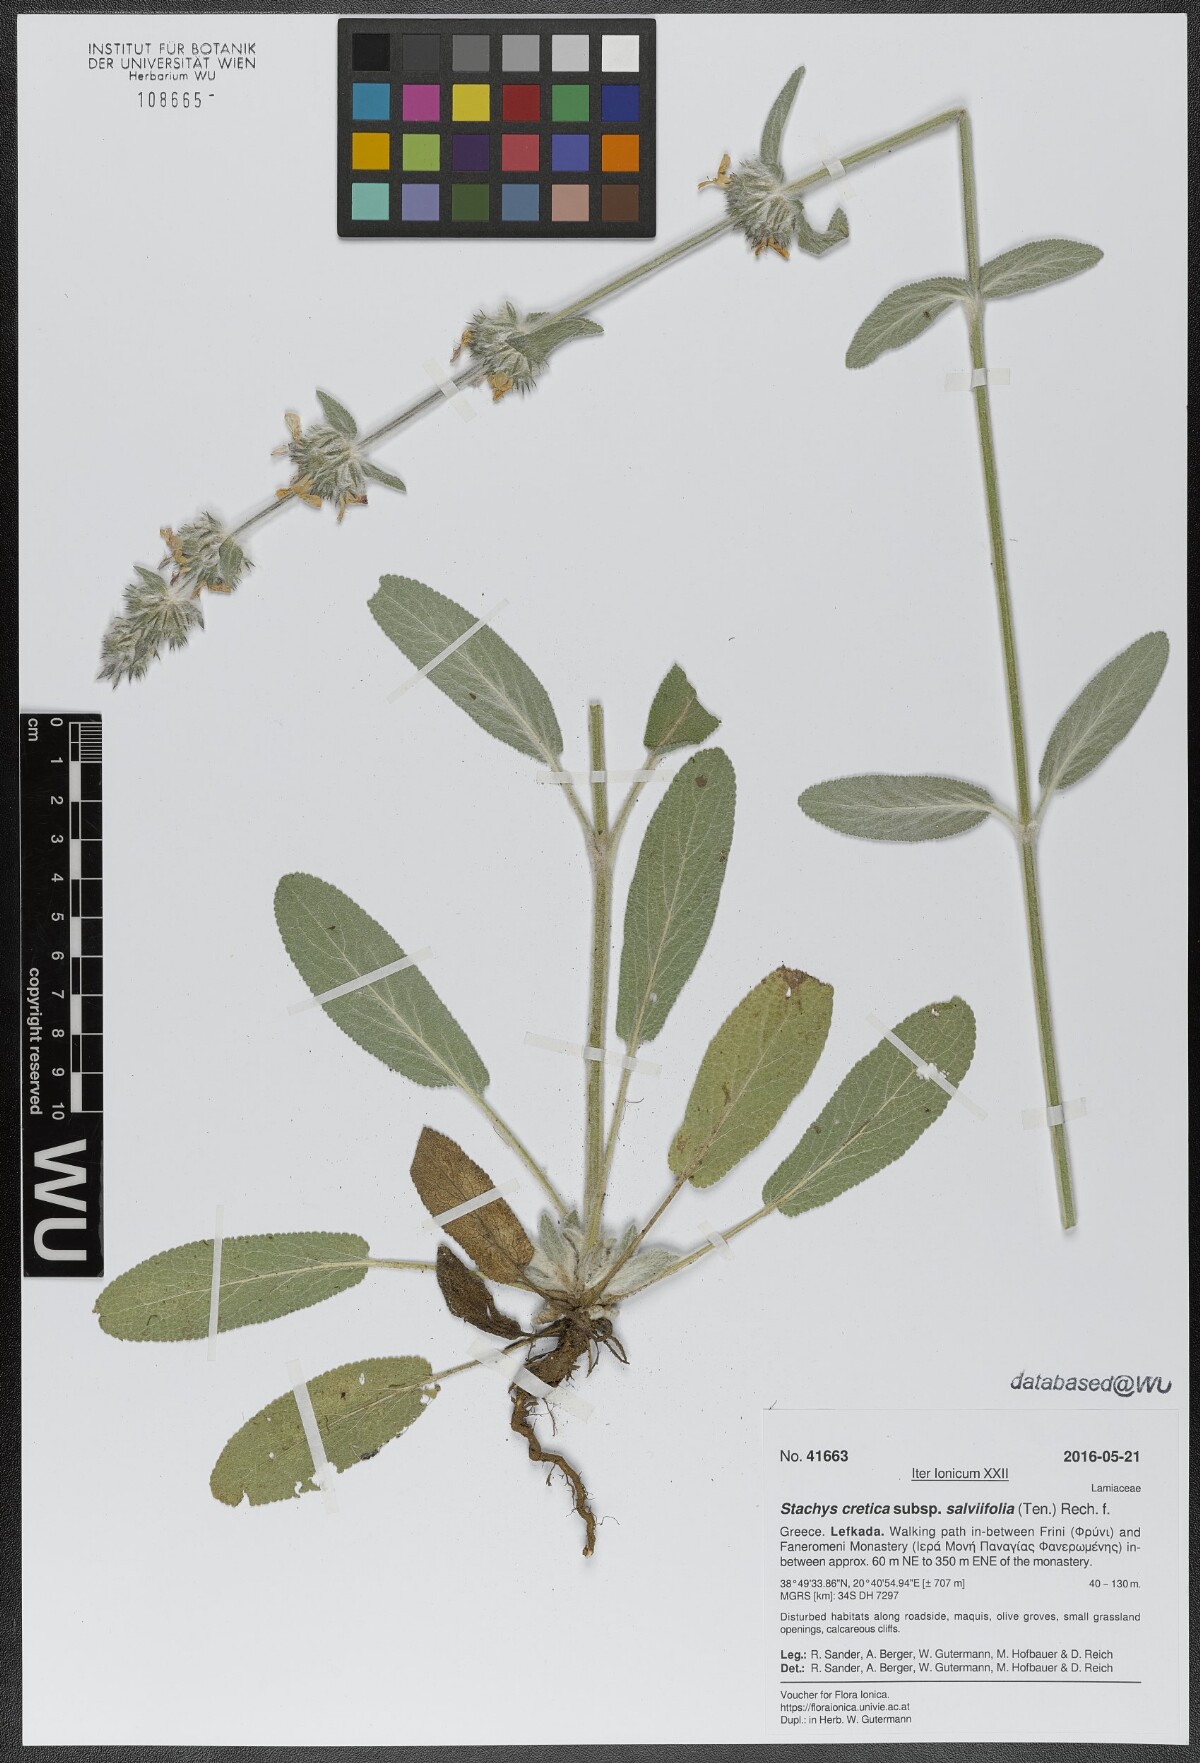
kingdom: Plantae
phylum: Tracheophyta
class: Magnoliopsida
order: Lamiales
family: Lamiaceae
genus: Stachys
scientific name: Stachys cretica
